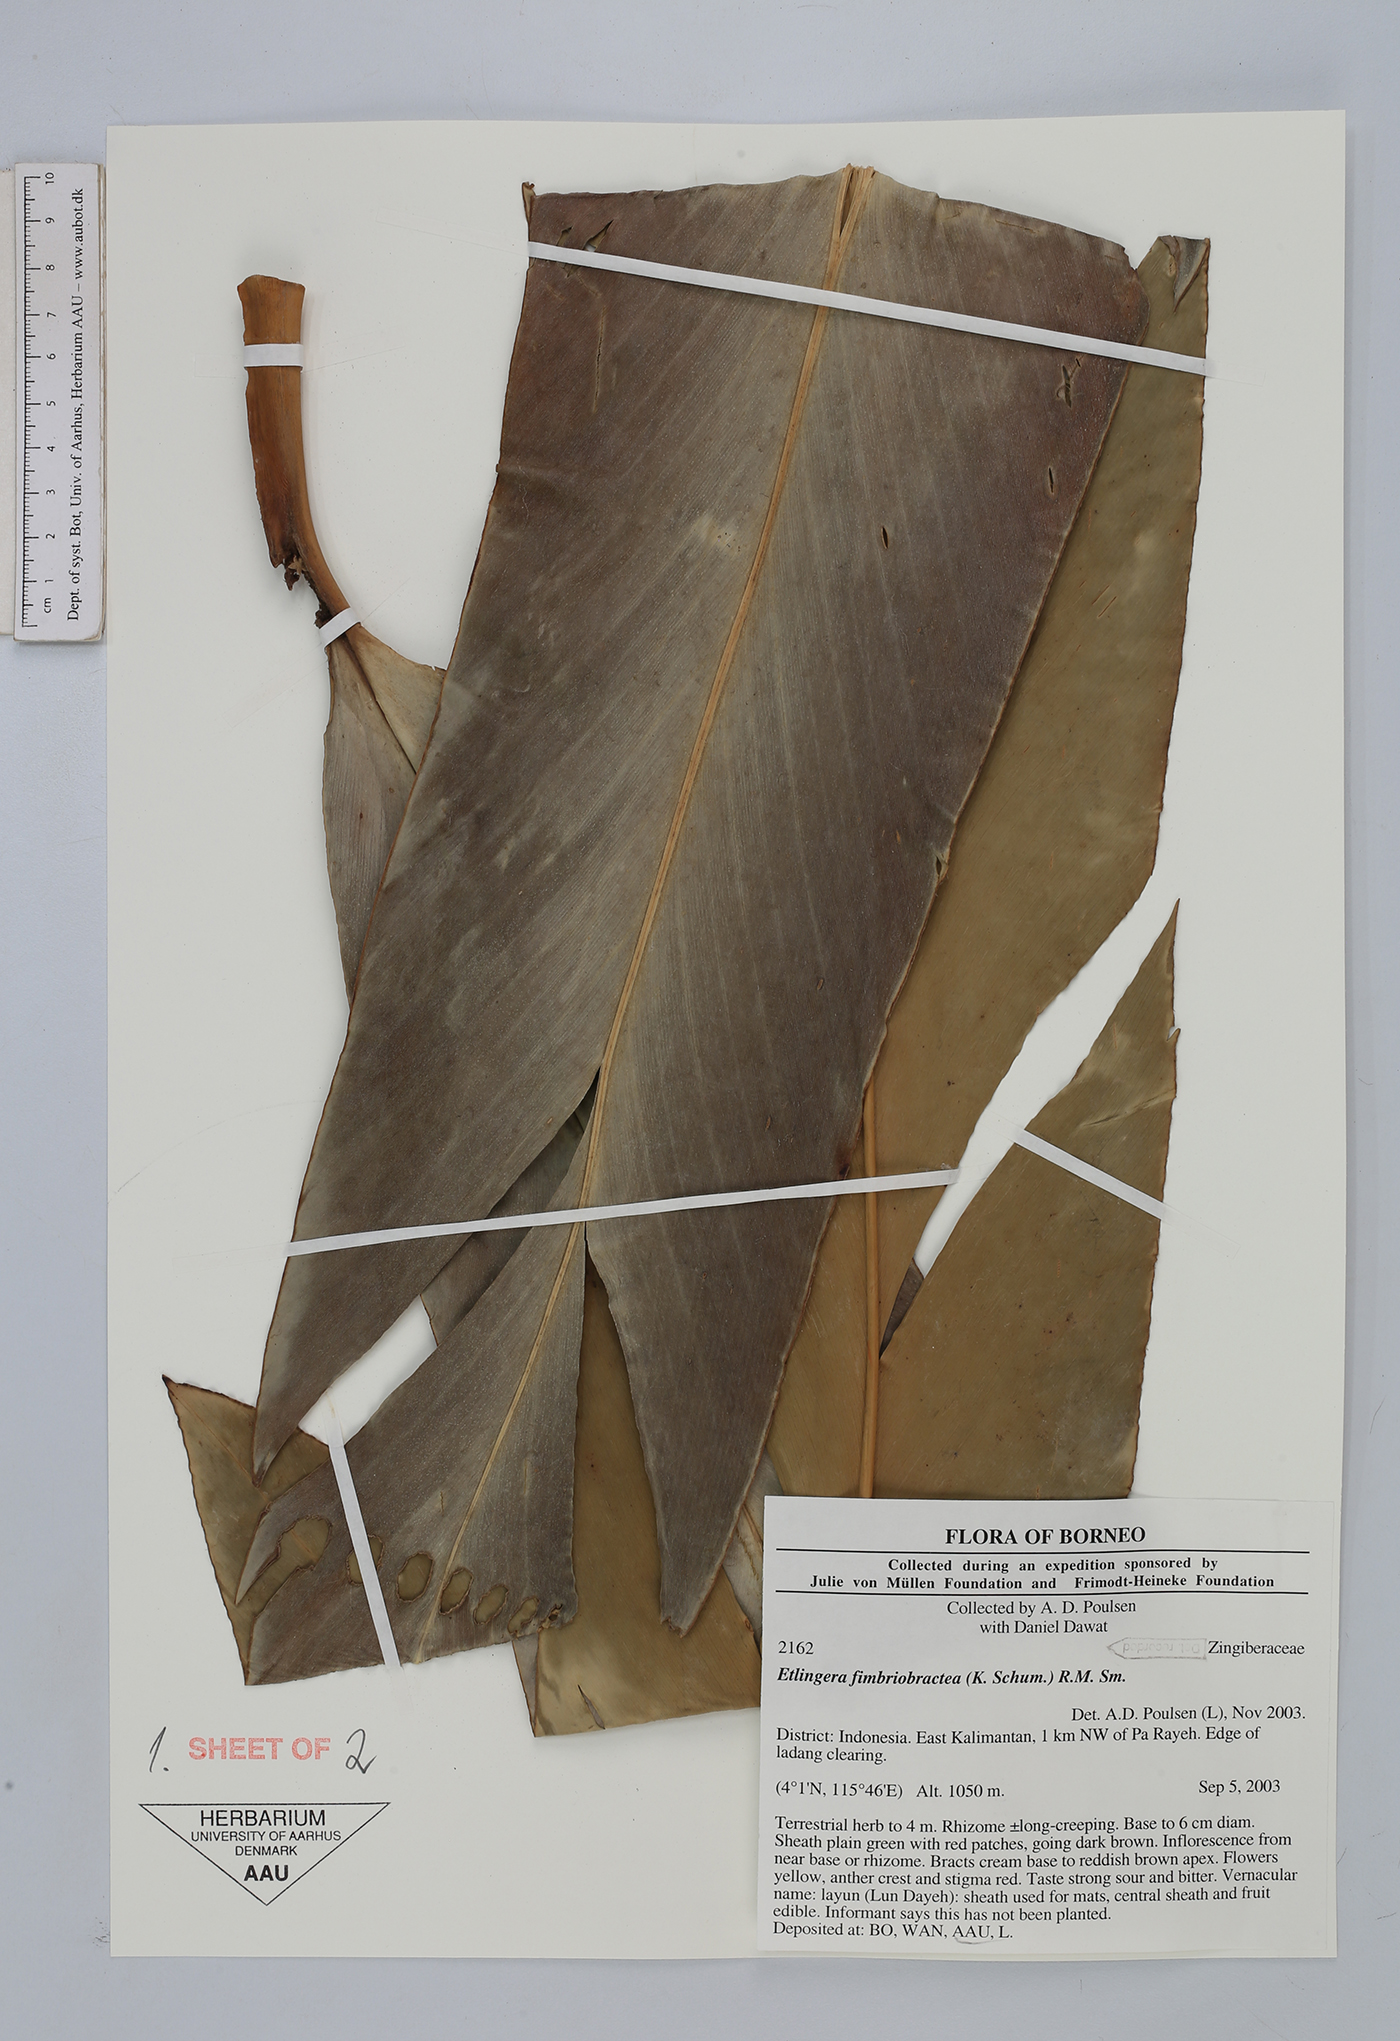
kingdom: Plantae
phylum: Tracheophyta
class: Liliopsida
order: Zingiberales
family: Zingiberaceae
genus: Etlingera
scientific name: Etlingera fimbriobracteata
